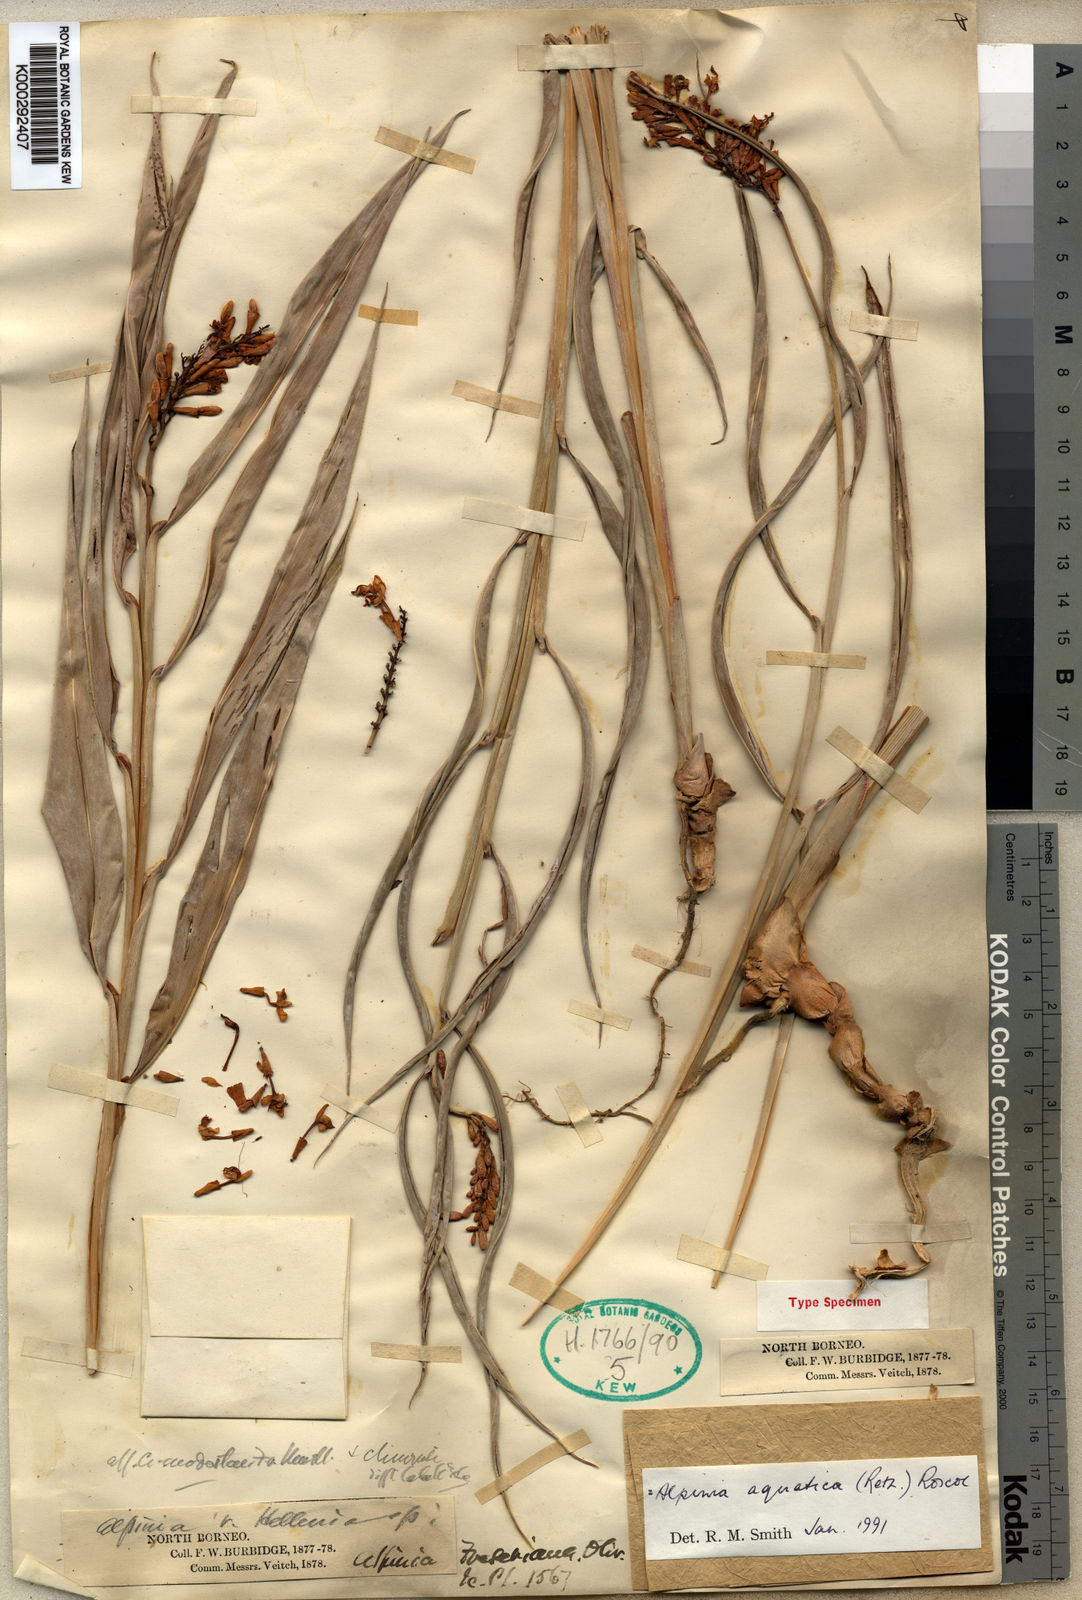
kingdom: Plantae
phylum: Tracheophyta
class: Liliopsida
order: Zingiberales
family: Zingiberaceae
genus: Alpinia
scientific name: Alpinia aquatica
